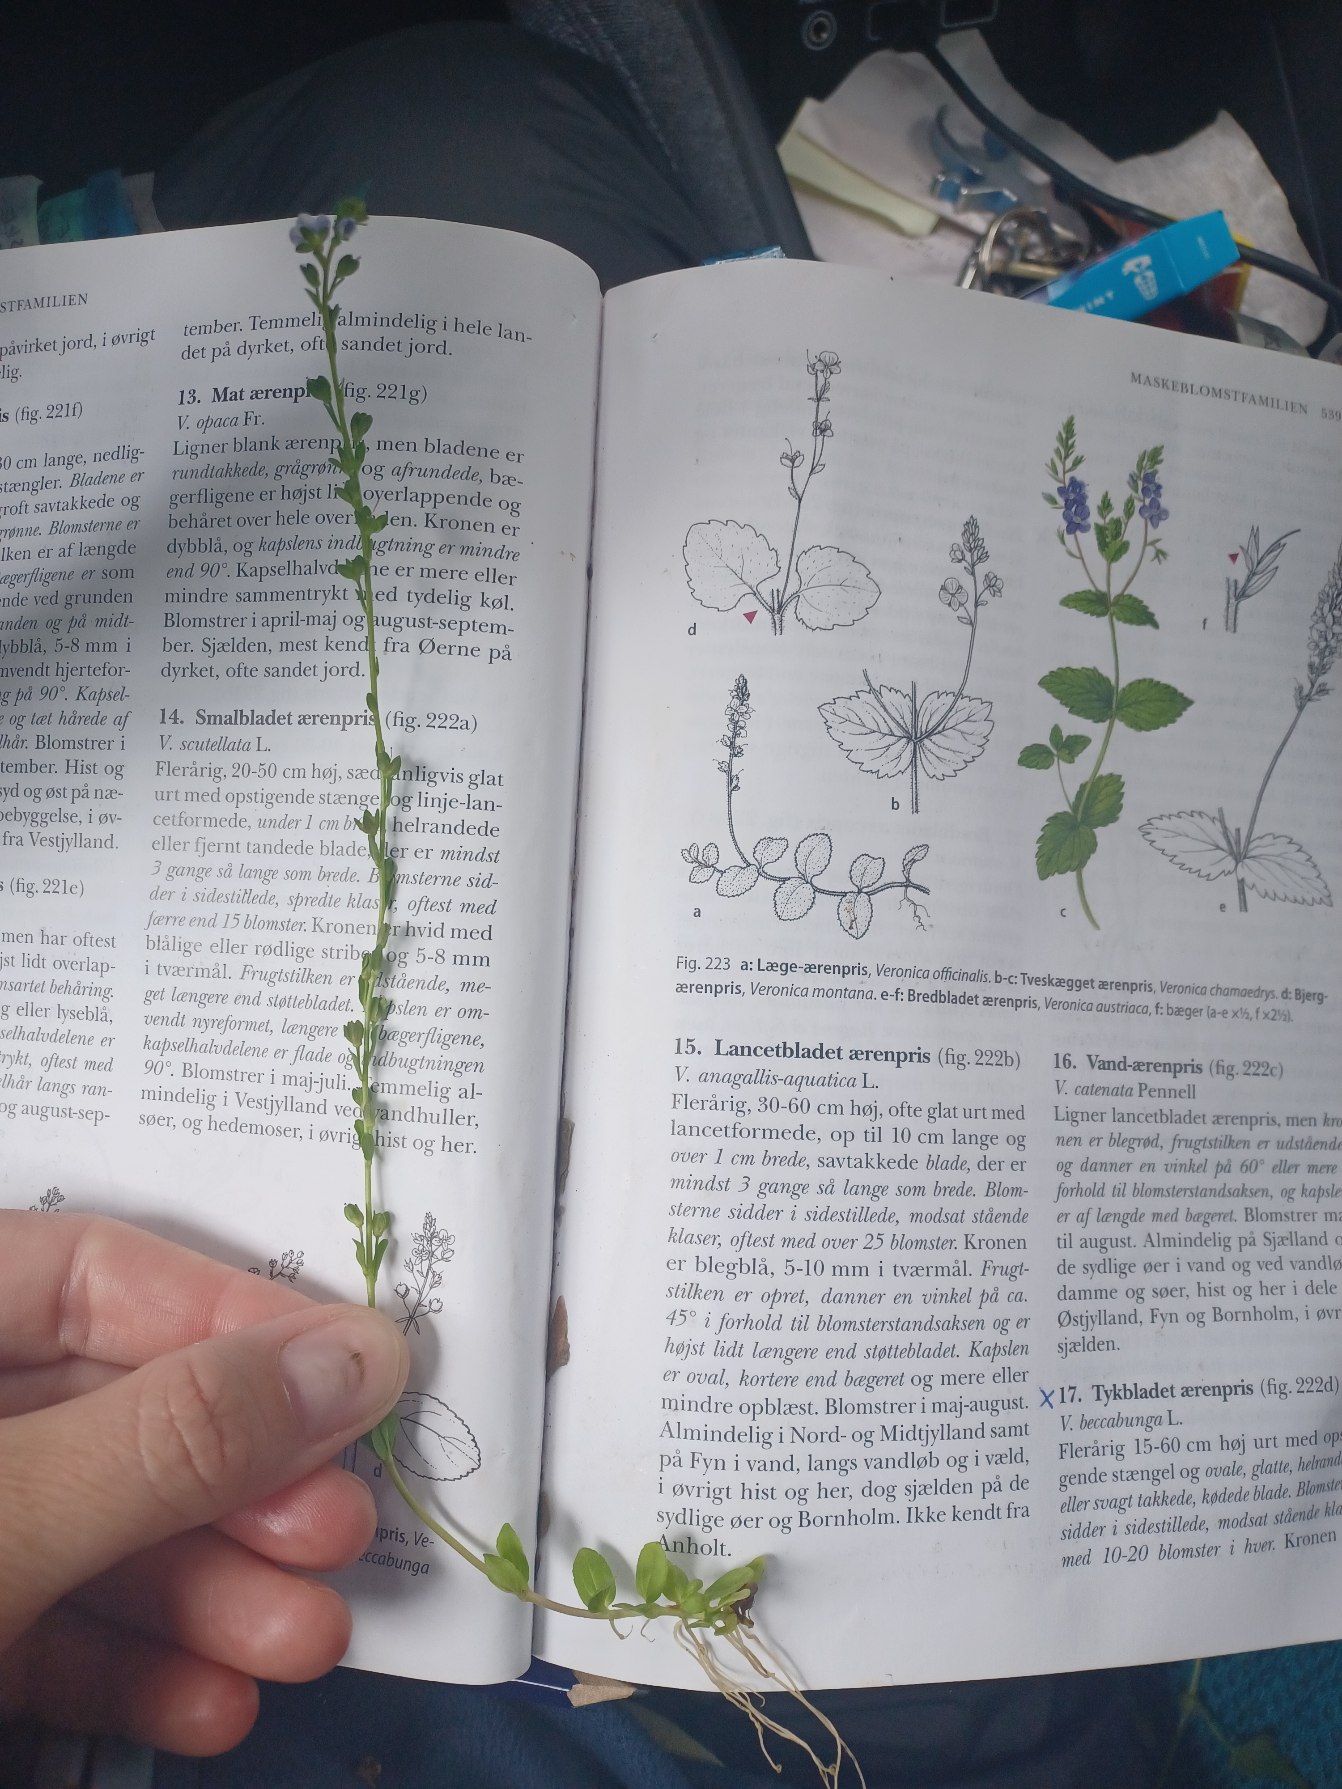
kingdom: Plantae
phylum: Tracheophyta
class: Magnoliopsida
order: Lamiales
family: Plantaginaceae
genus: Veronica
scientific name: Veronica serpyllifolia
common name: Glat ærenpris
